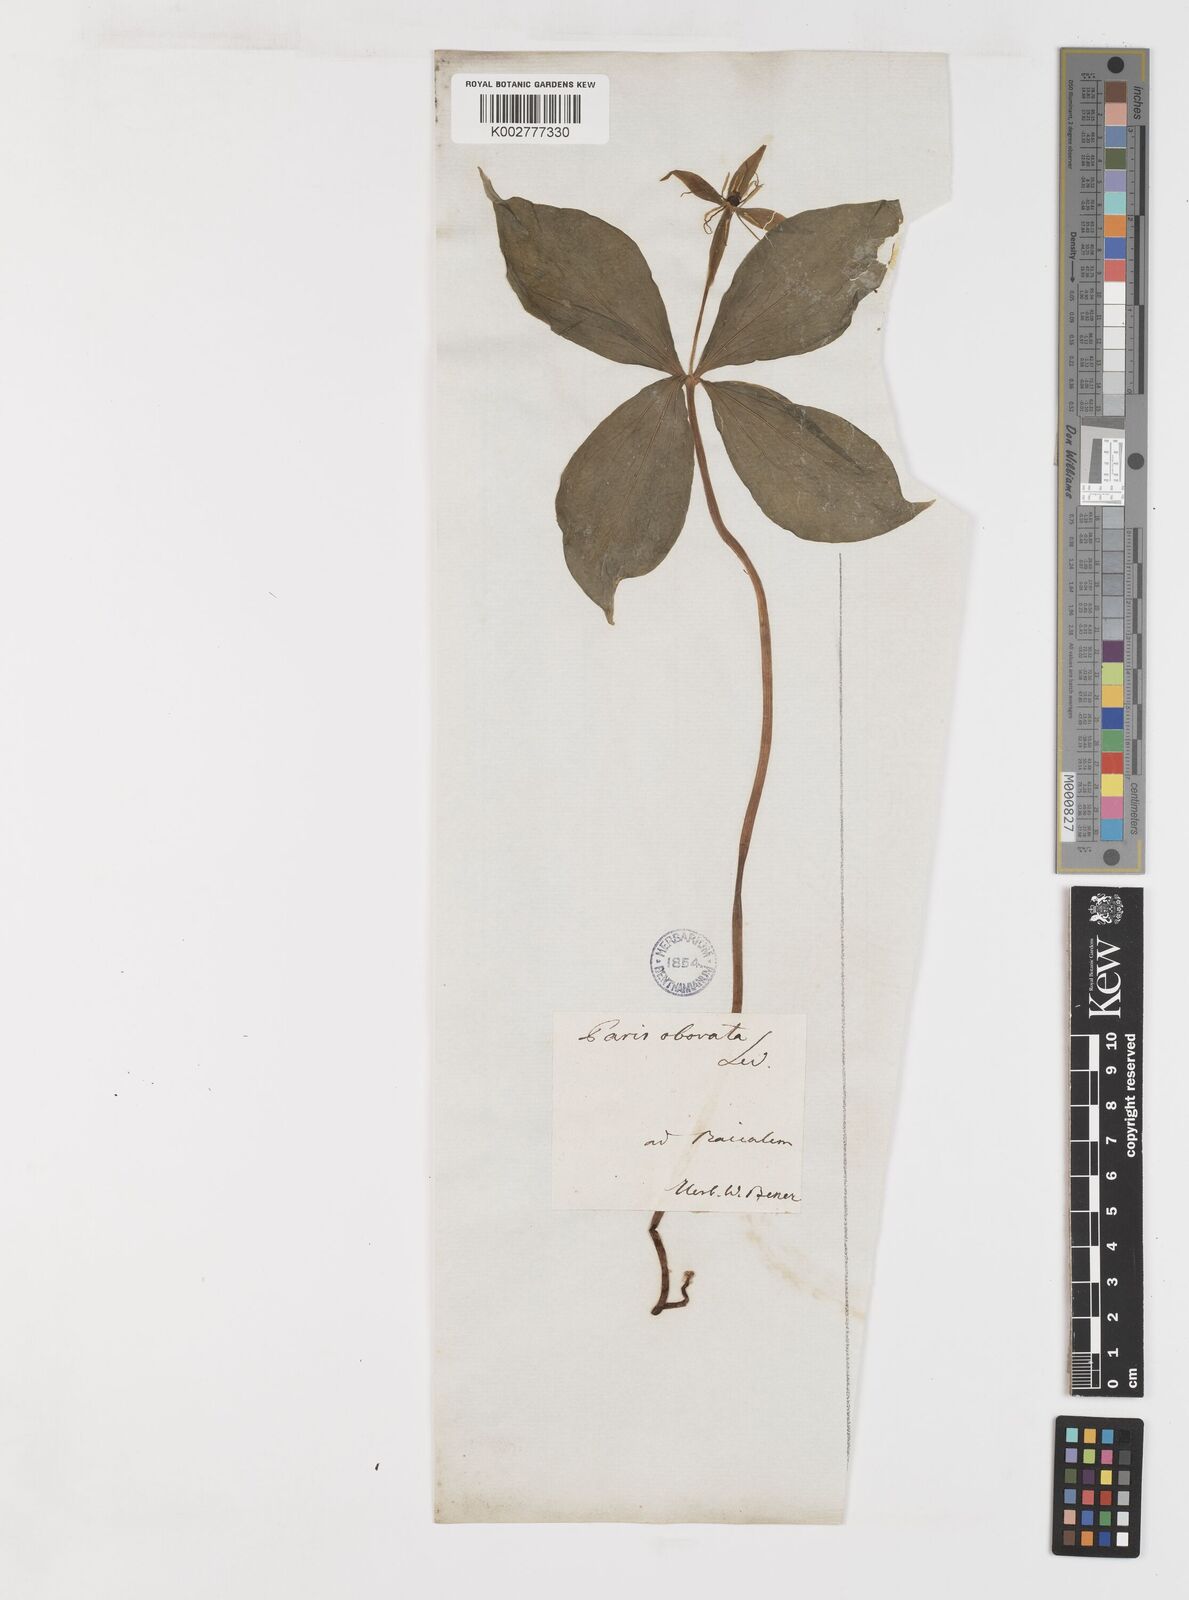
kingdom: Plantae
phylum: Tracheophyta
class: Liliopsida
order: Liliales
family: Melanthiaceae
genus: Paris
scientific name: Paris incompleta
